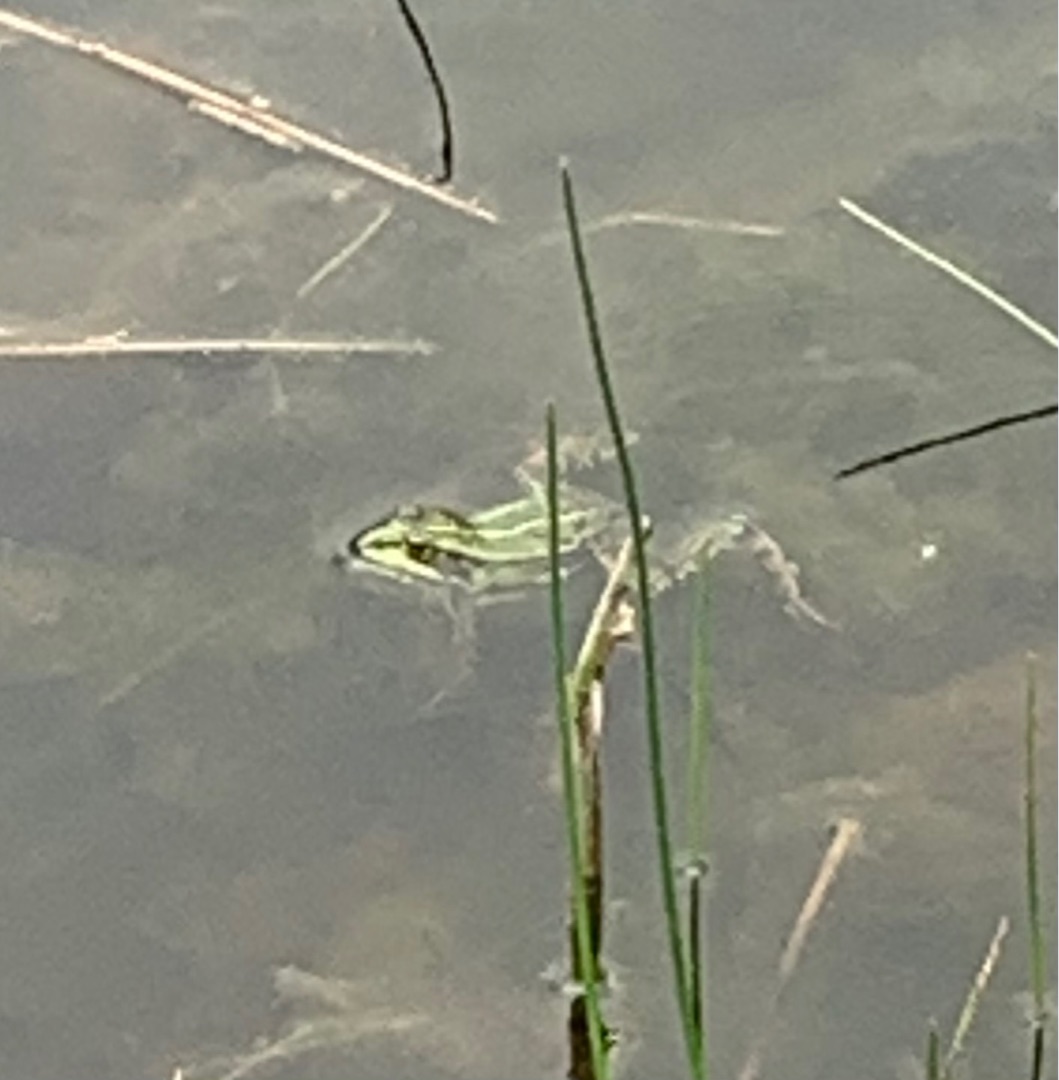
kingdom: Animalia
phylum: Chordata
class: Amphibia
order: Anura
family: Ranidae
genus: Pelophylax
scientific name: Pelophylax lessonae
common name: Grøn frø
